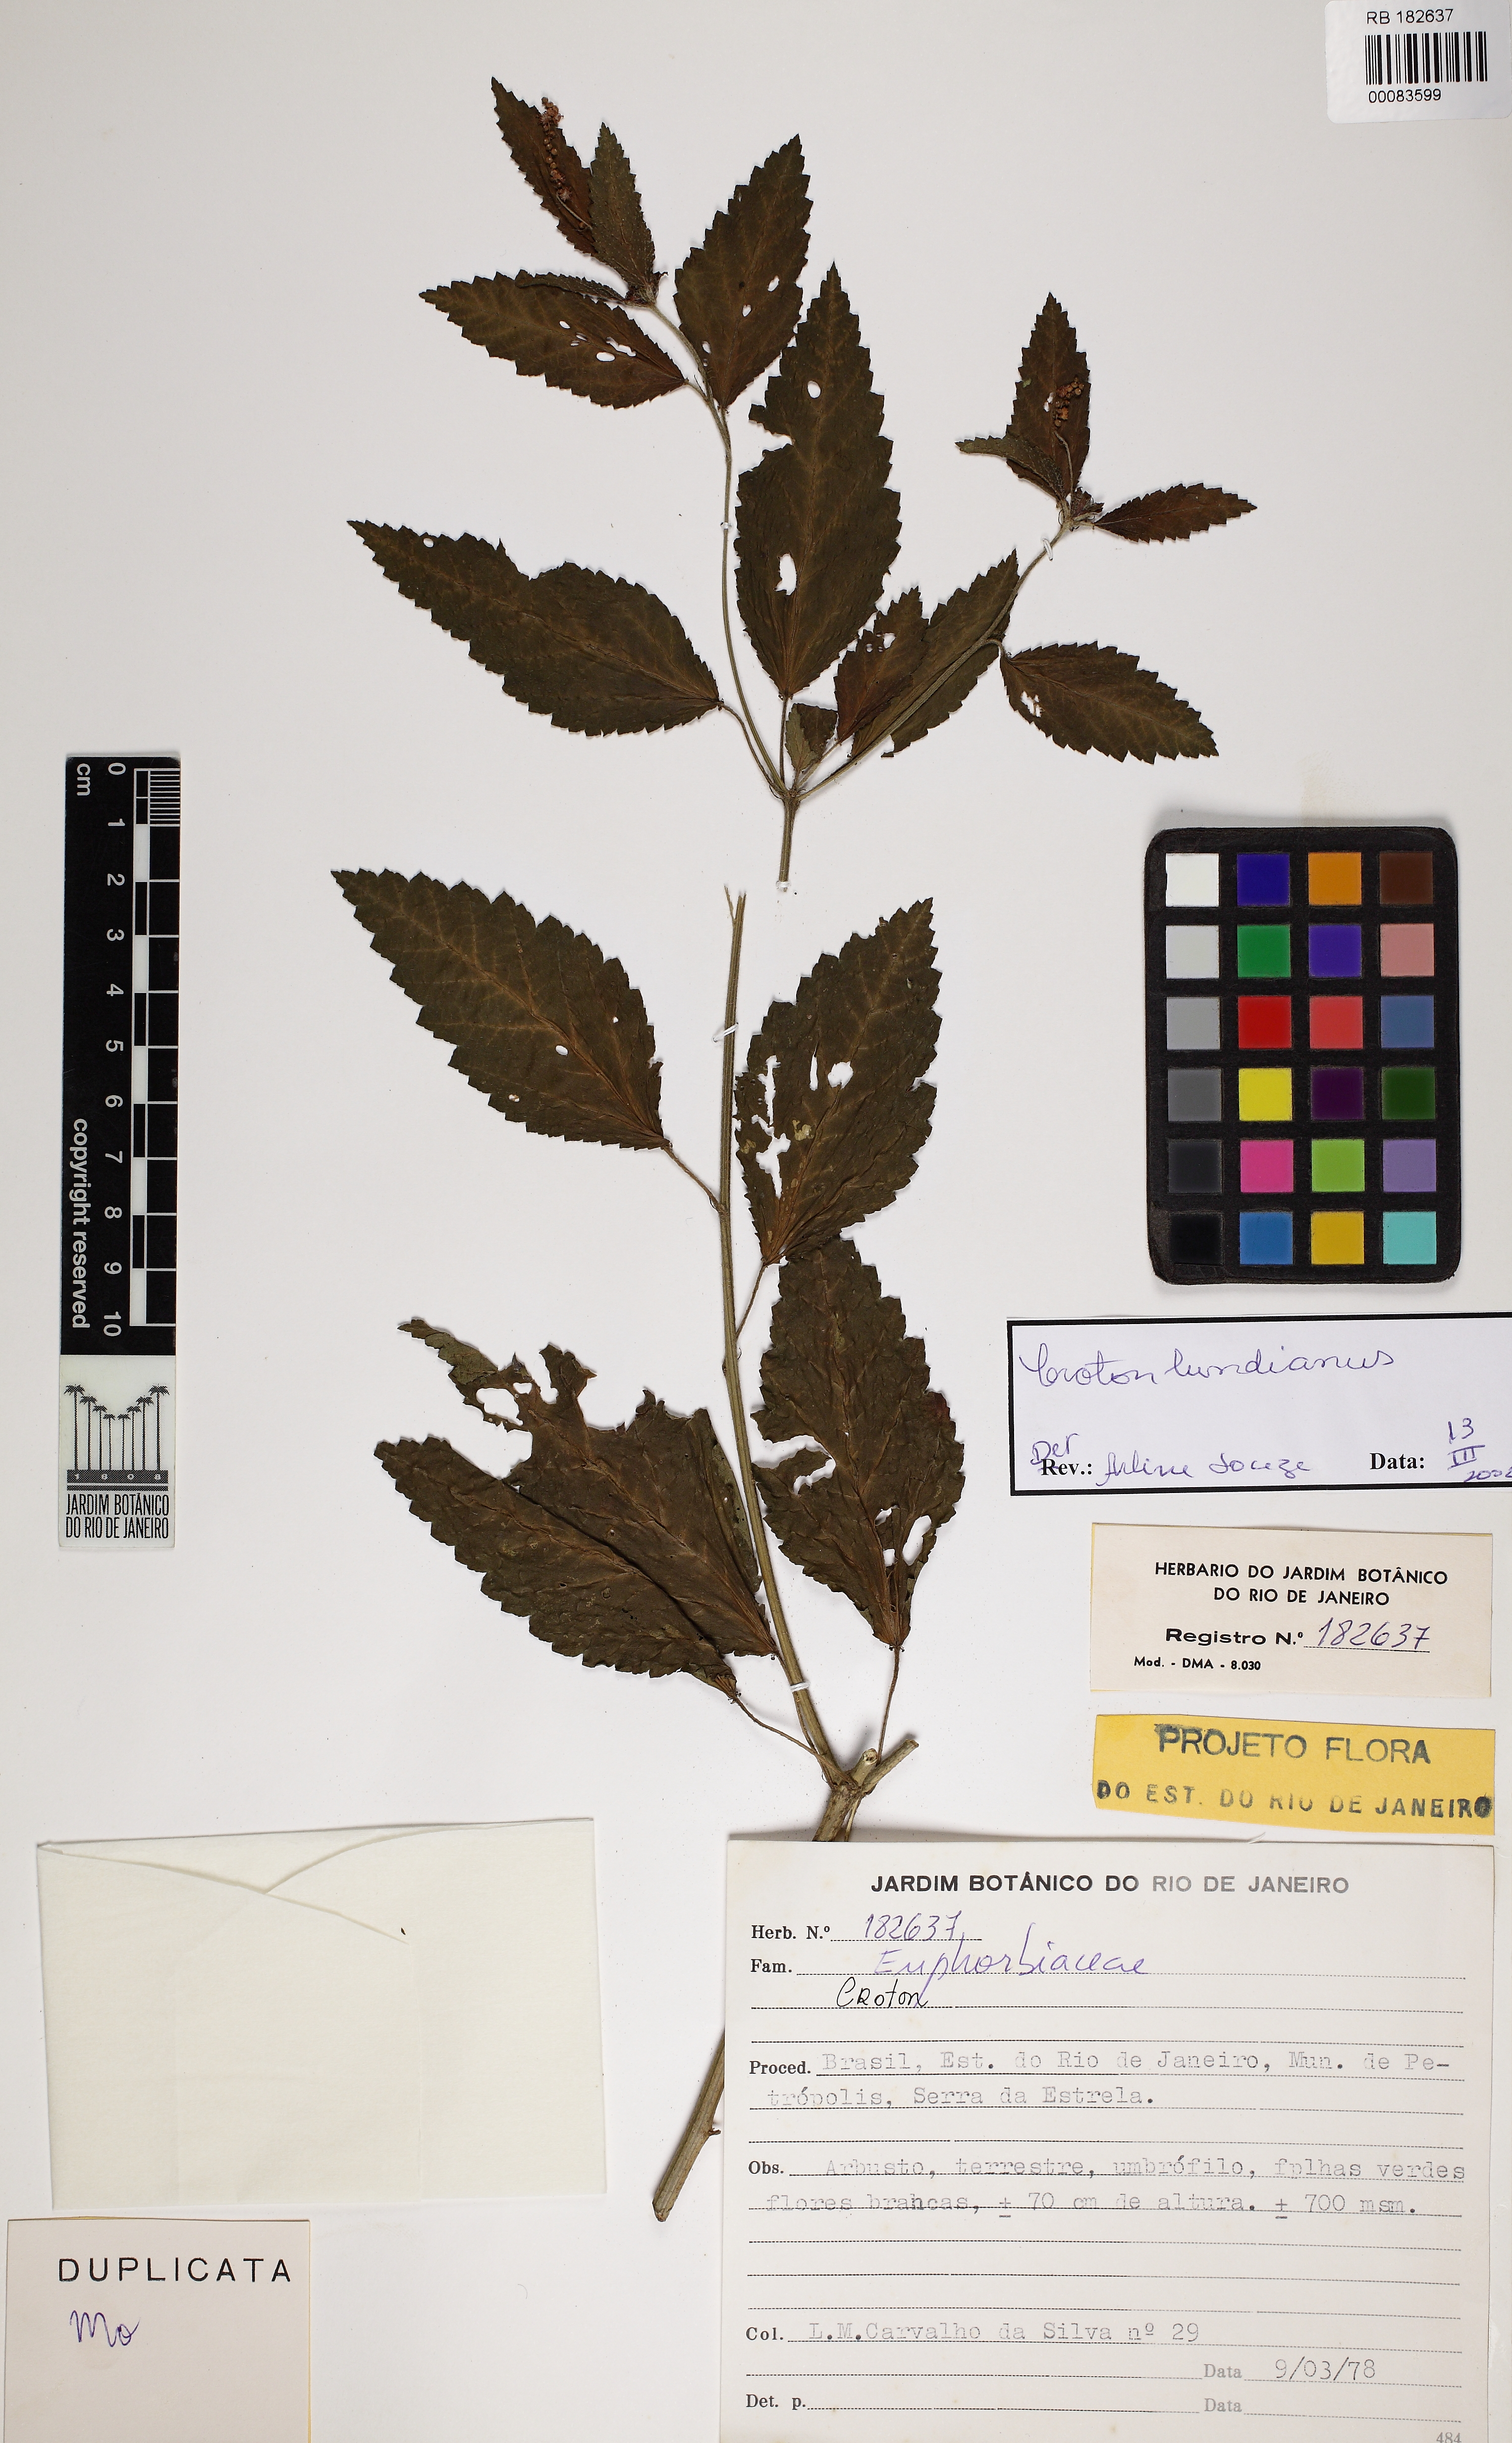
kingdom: Plantae
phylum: Tracheophyta
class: Magnoliopsida
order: Malpighiales
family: Euphorbiaceae
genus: Croton
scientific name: Croton lundianus
